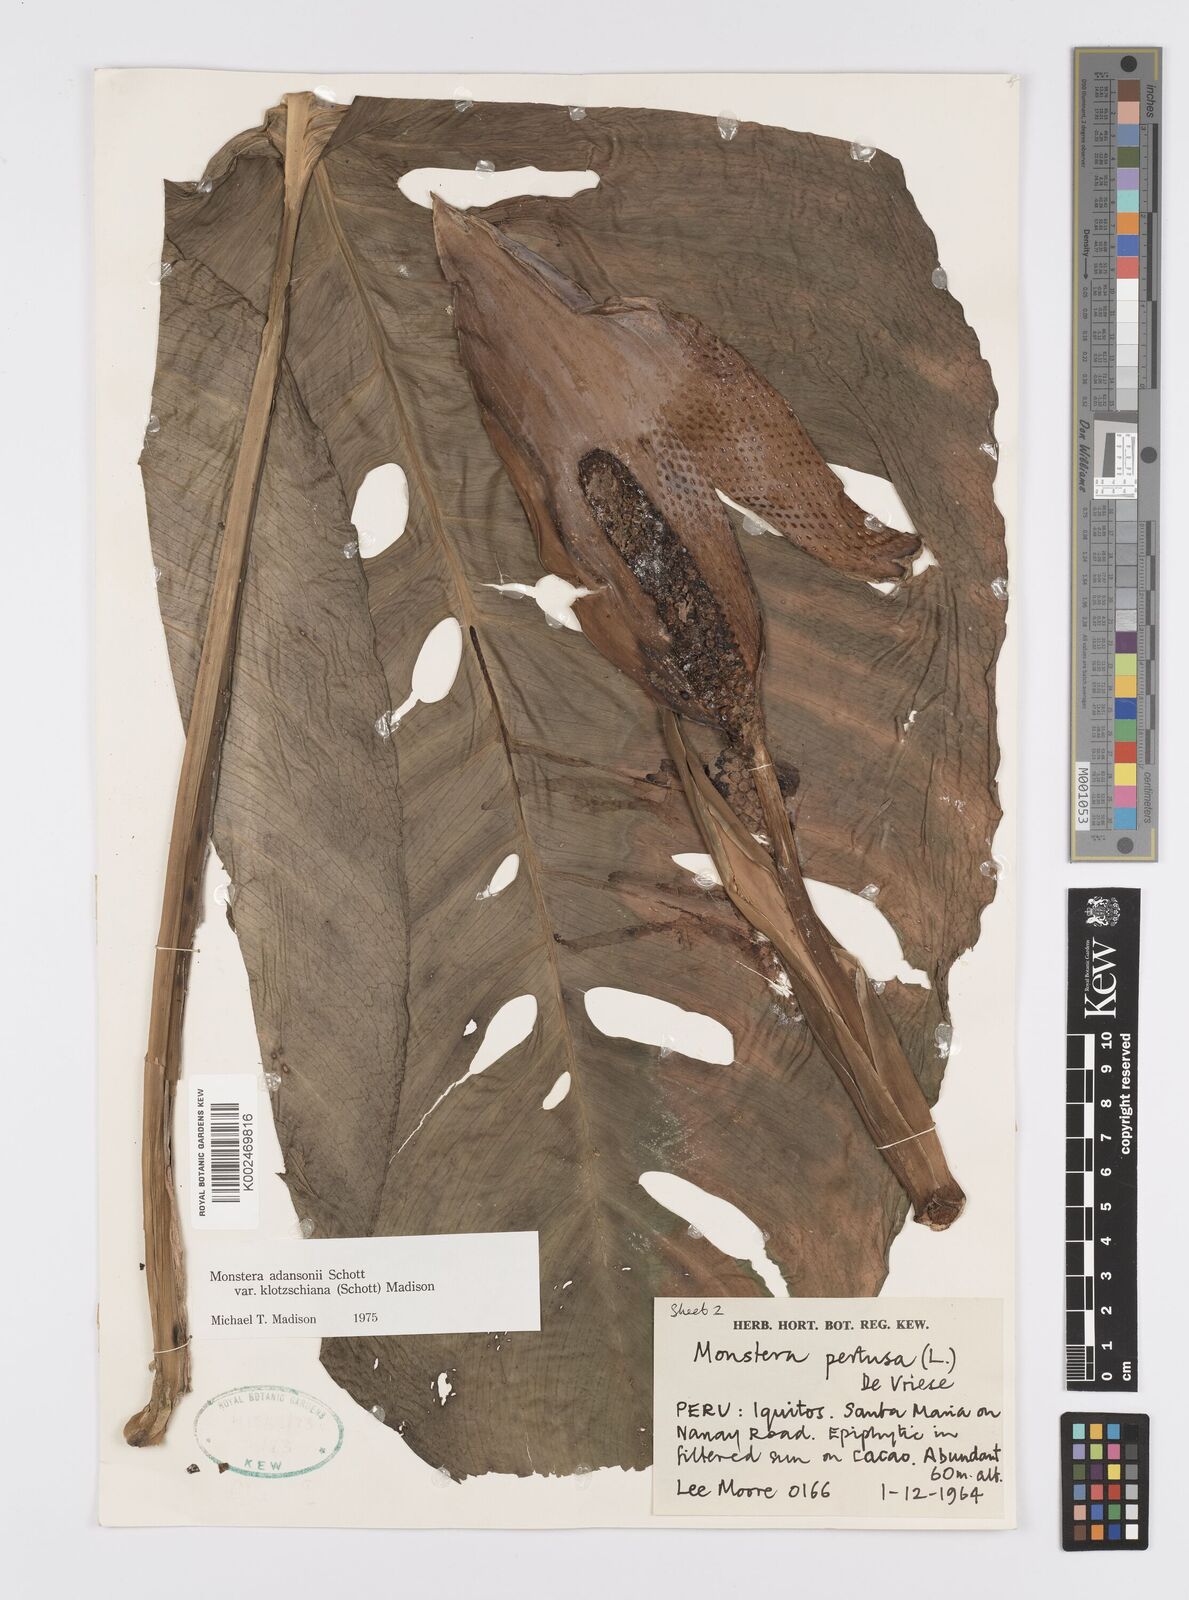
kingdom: Plantae
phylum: Tracheophyta
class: Liliopsida
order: Alismatales
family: Araceae
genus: Monstera
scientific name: Monstera adansonii
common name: Tarovine
